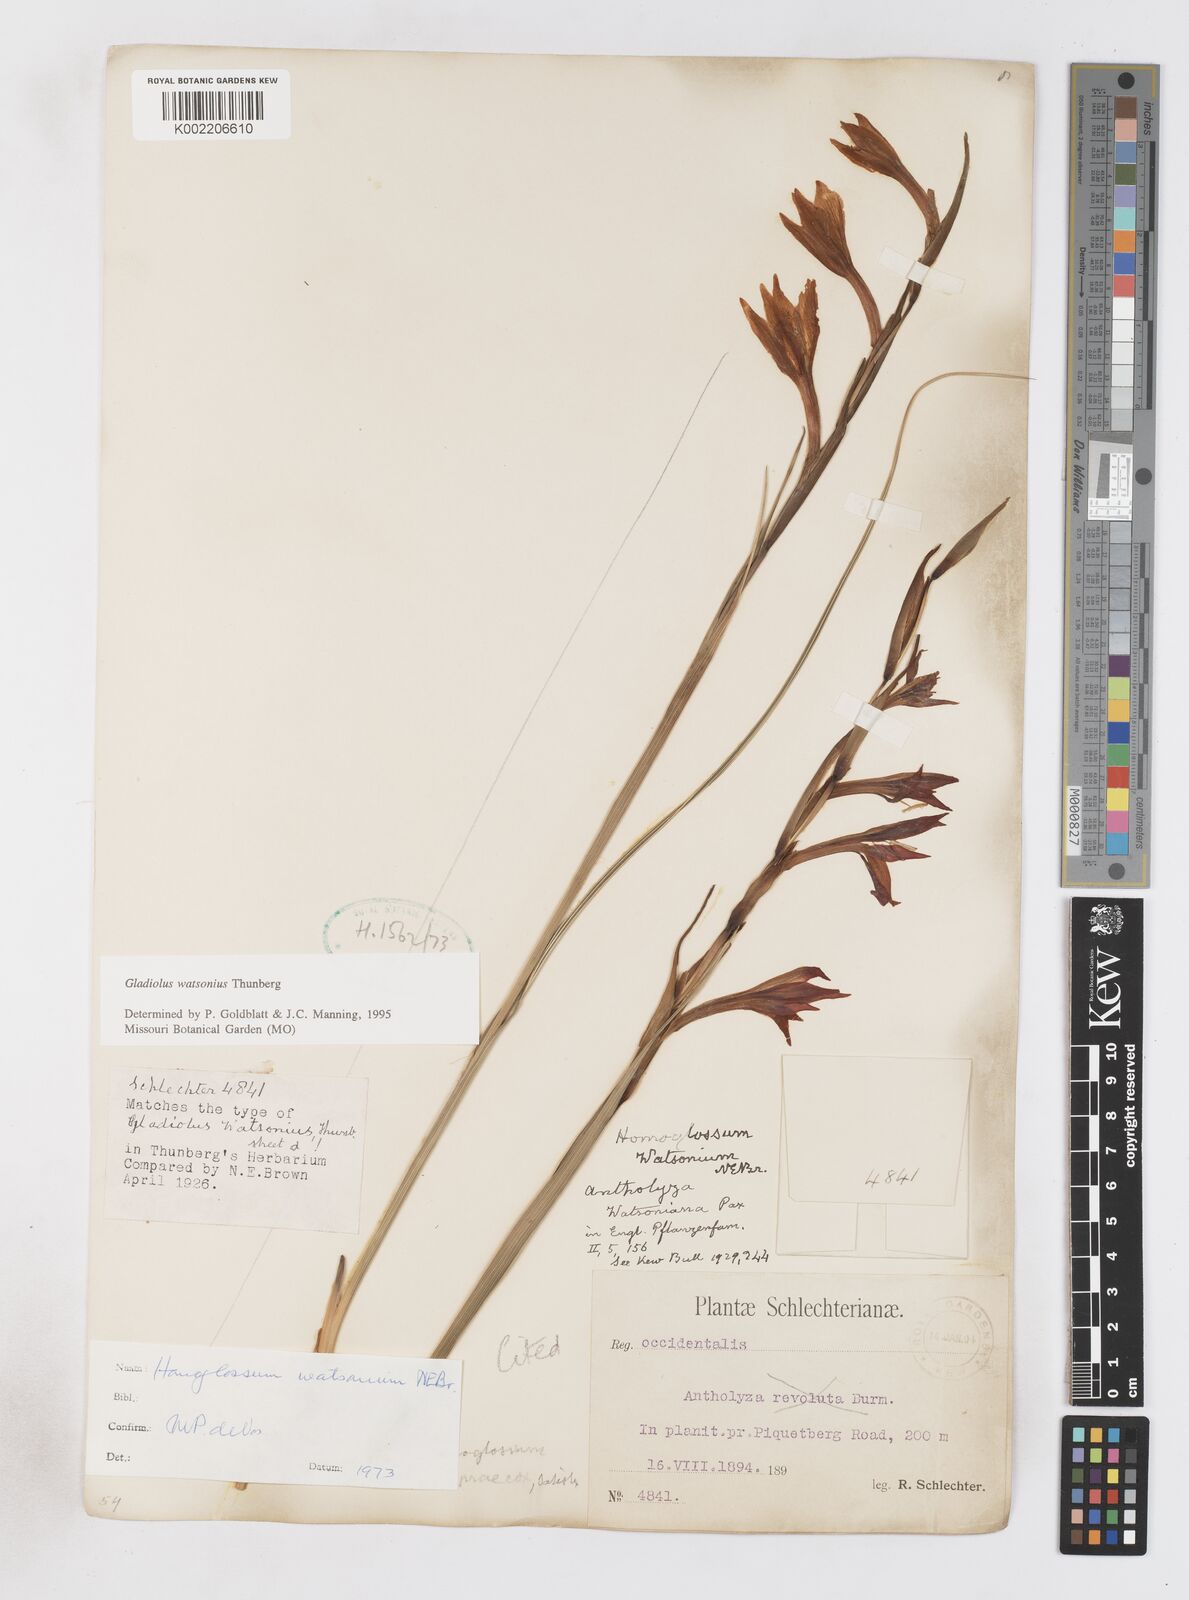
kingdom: Plantae
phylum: Tracheophyta
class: Liliopsida
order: Asparagales
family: Iridaceae
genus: Gladiolus
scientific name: Gladiolus watsonius
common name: Red afrikaner
